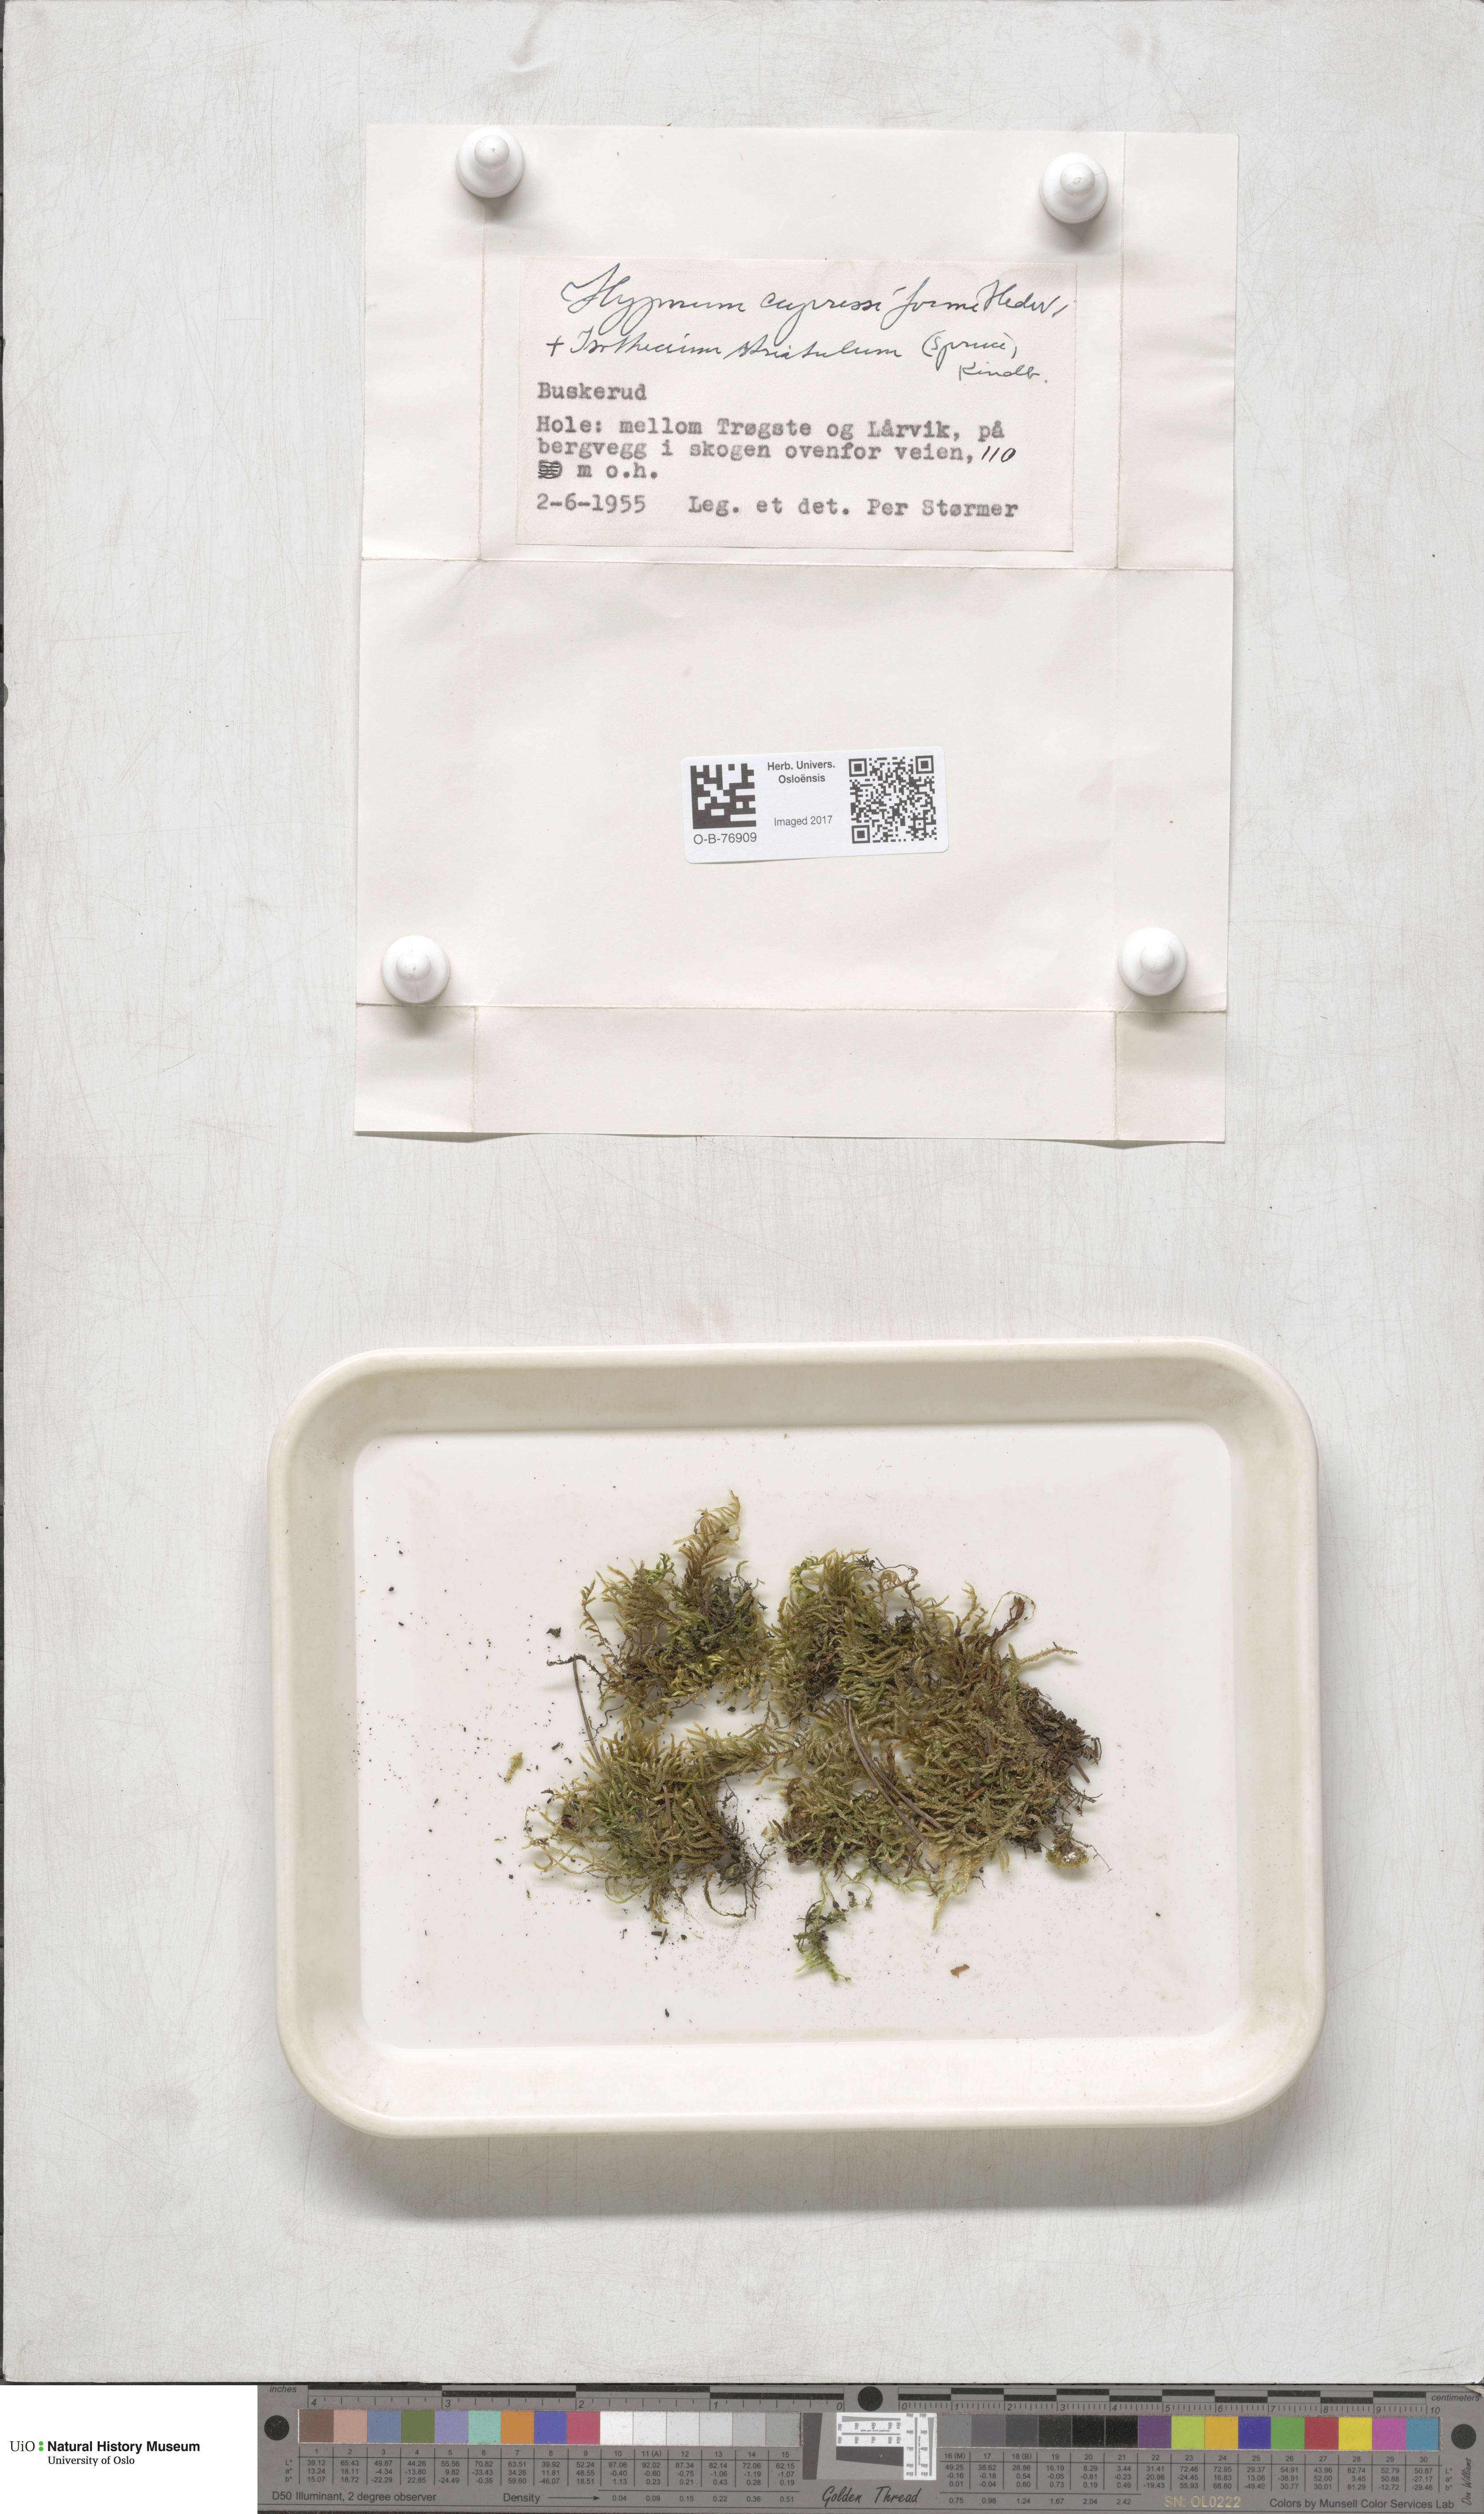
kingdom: Plantae
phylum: Bryophyta
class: Bryopsida
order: Hypnales
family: Hypnaceae
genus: Hypnum
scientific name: Hypnum cupressiforme
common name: Cypress-leaved plait-moss
